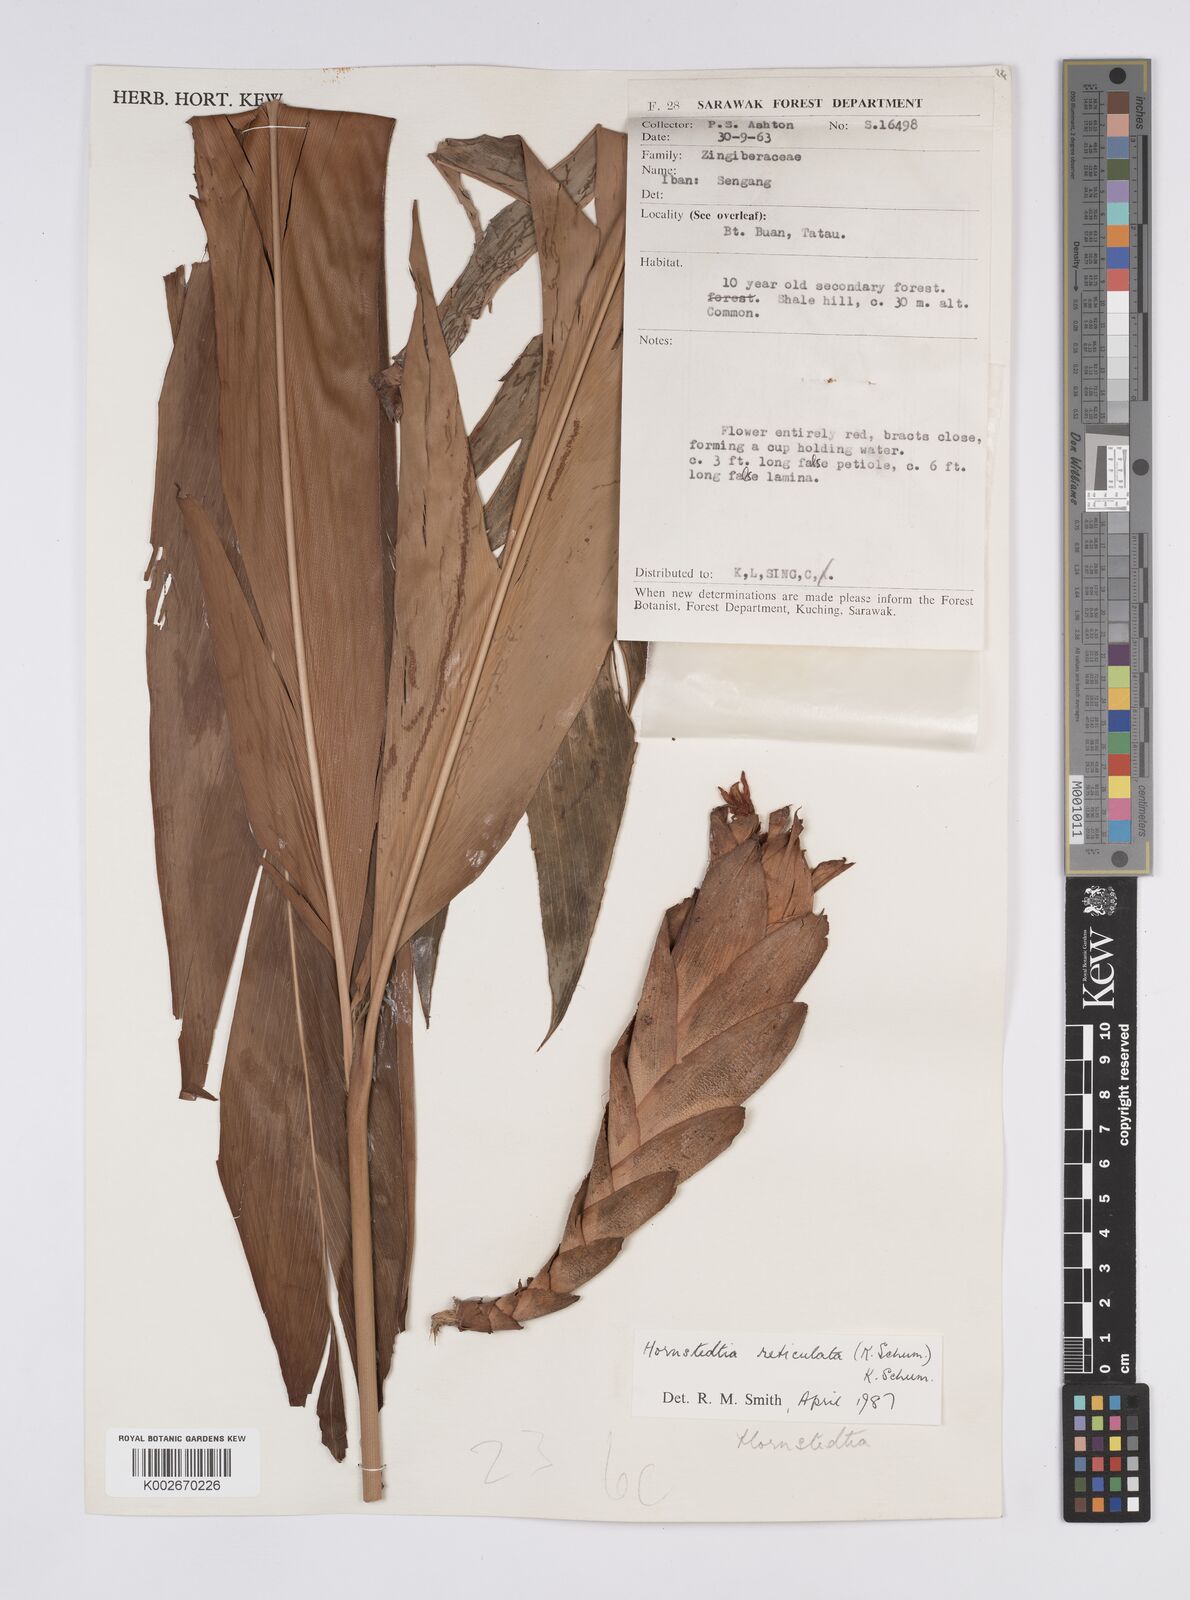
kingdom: Plantae
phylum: Tracheophyta
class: Liliopsida
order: Zingiberales
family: Zingiberaceae
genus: Hornstedtia
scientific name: Hornstedtia reticulata
